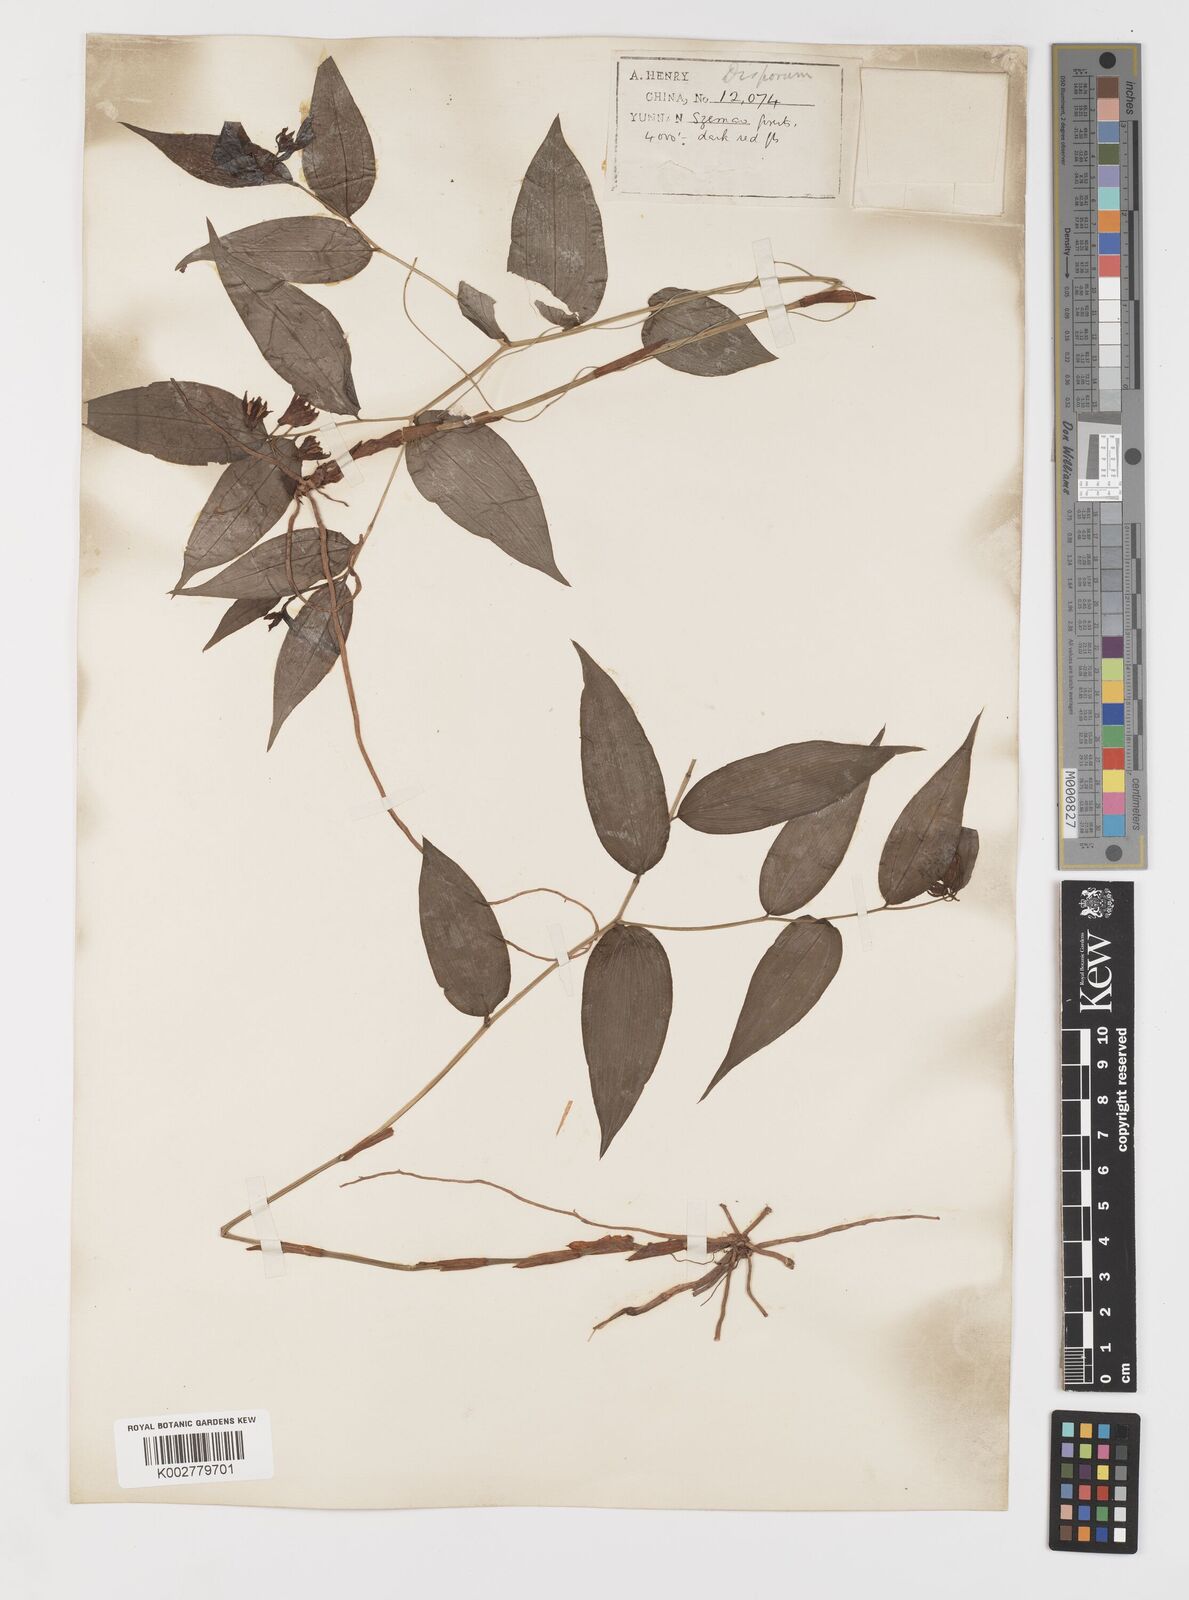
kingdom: Plantae
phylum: Tracheophyta
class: Liliopsida
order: Liliales
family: Colchicaceae
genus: Disporum
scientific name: Disporum cantoniense
